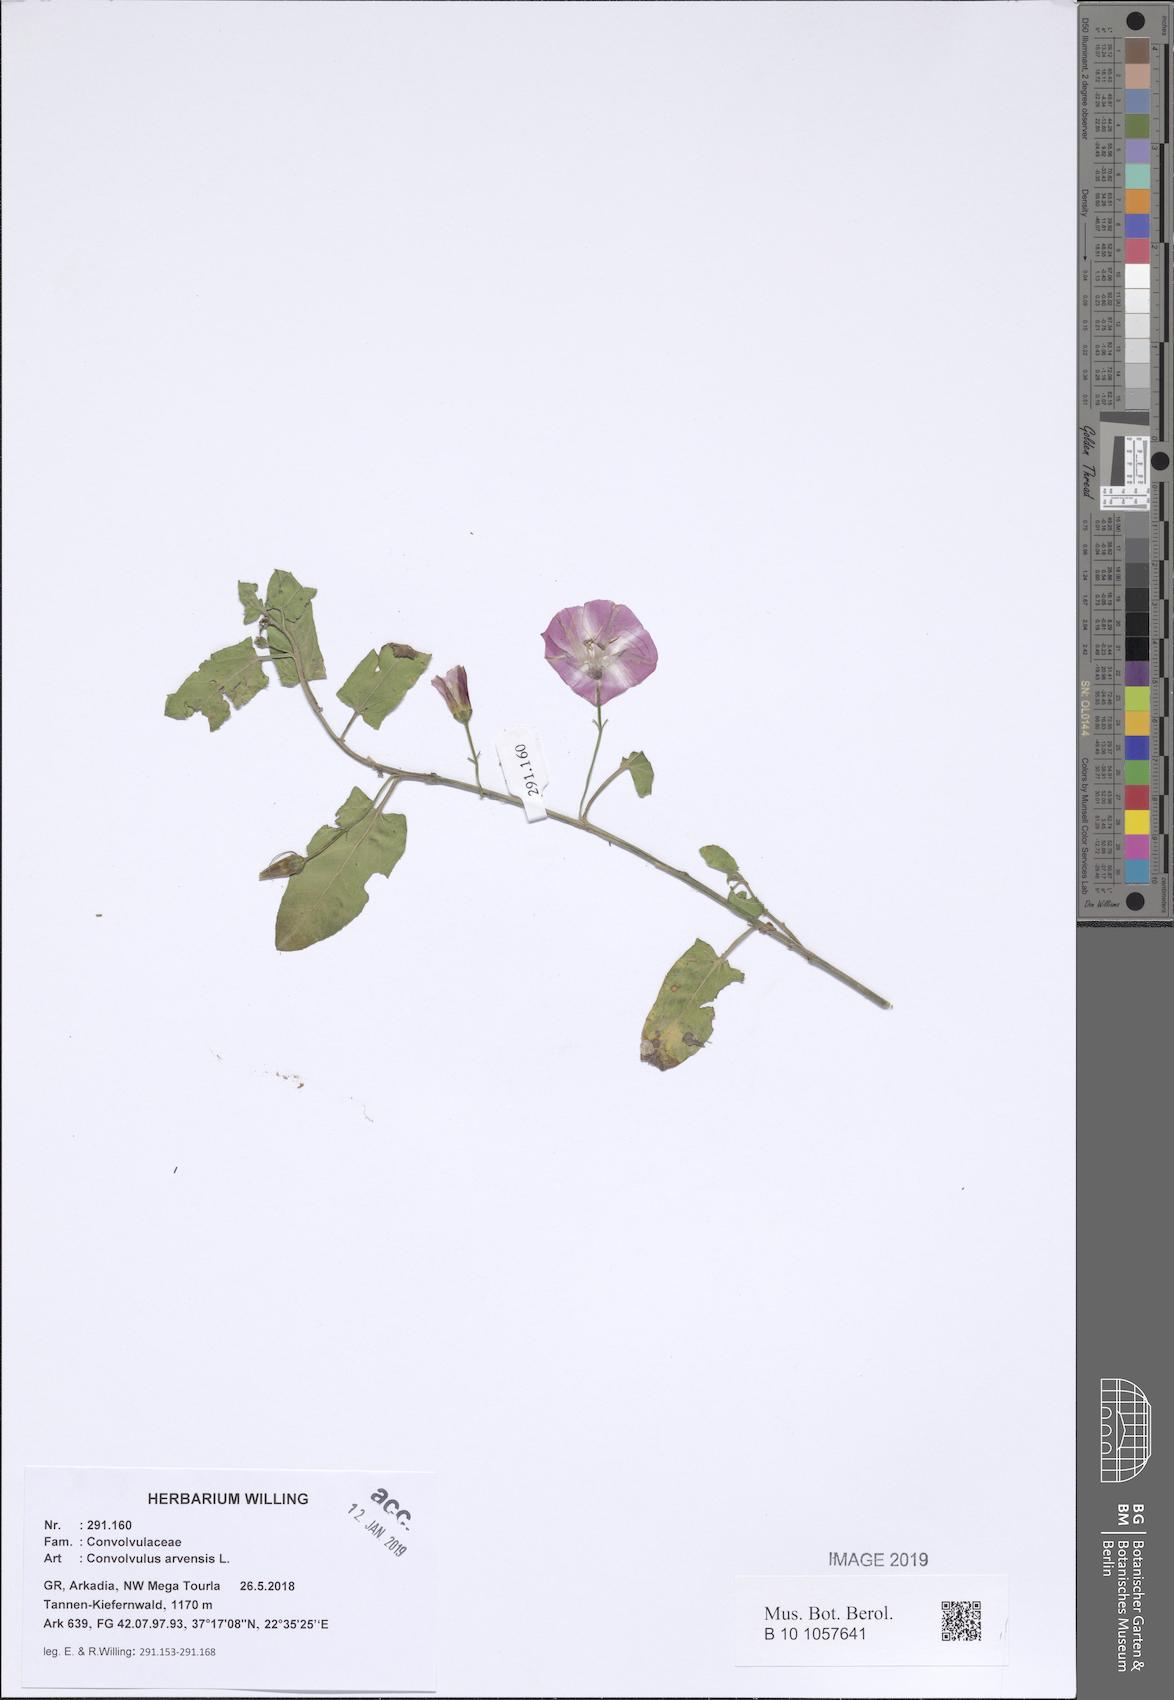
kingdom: Plantae
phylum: Tracheophyta
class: Magnoliopsida
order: Solanales
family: Convolvulaceae
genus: Convolvulus
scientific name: Convolvulus arvensis
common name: Field bindweed
